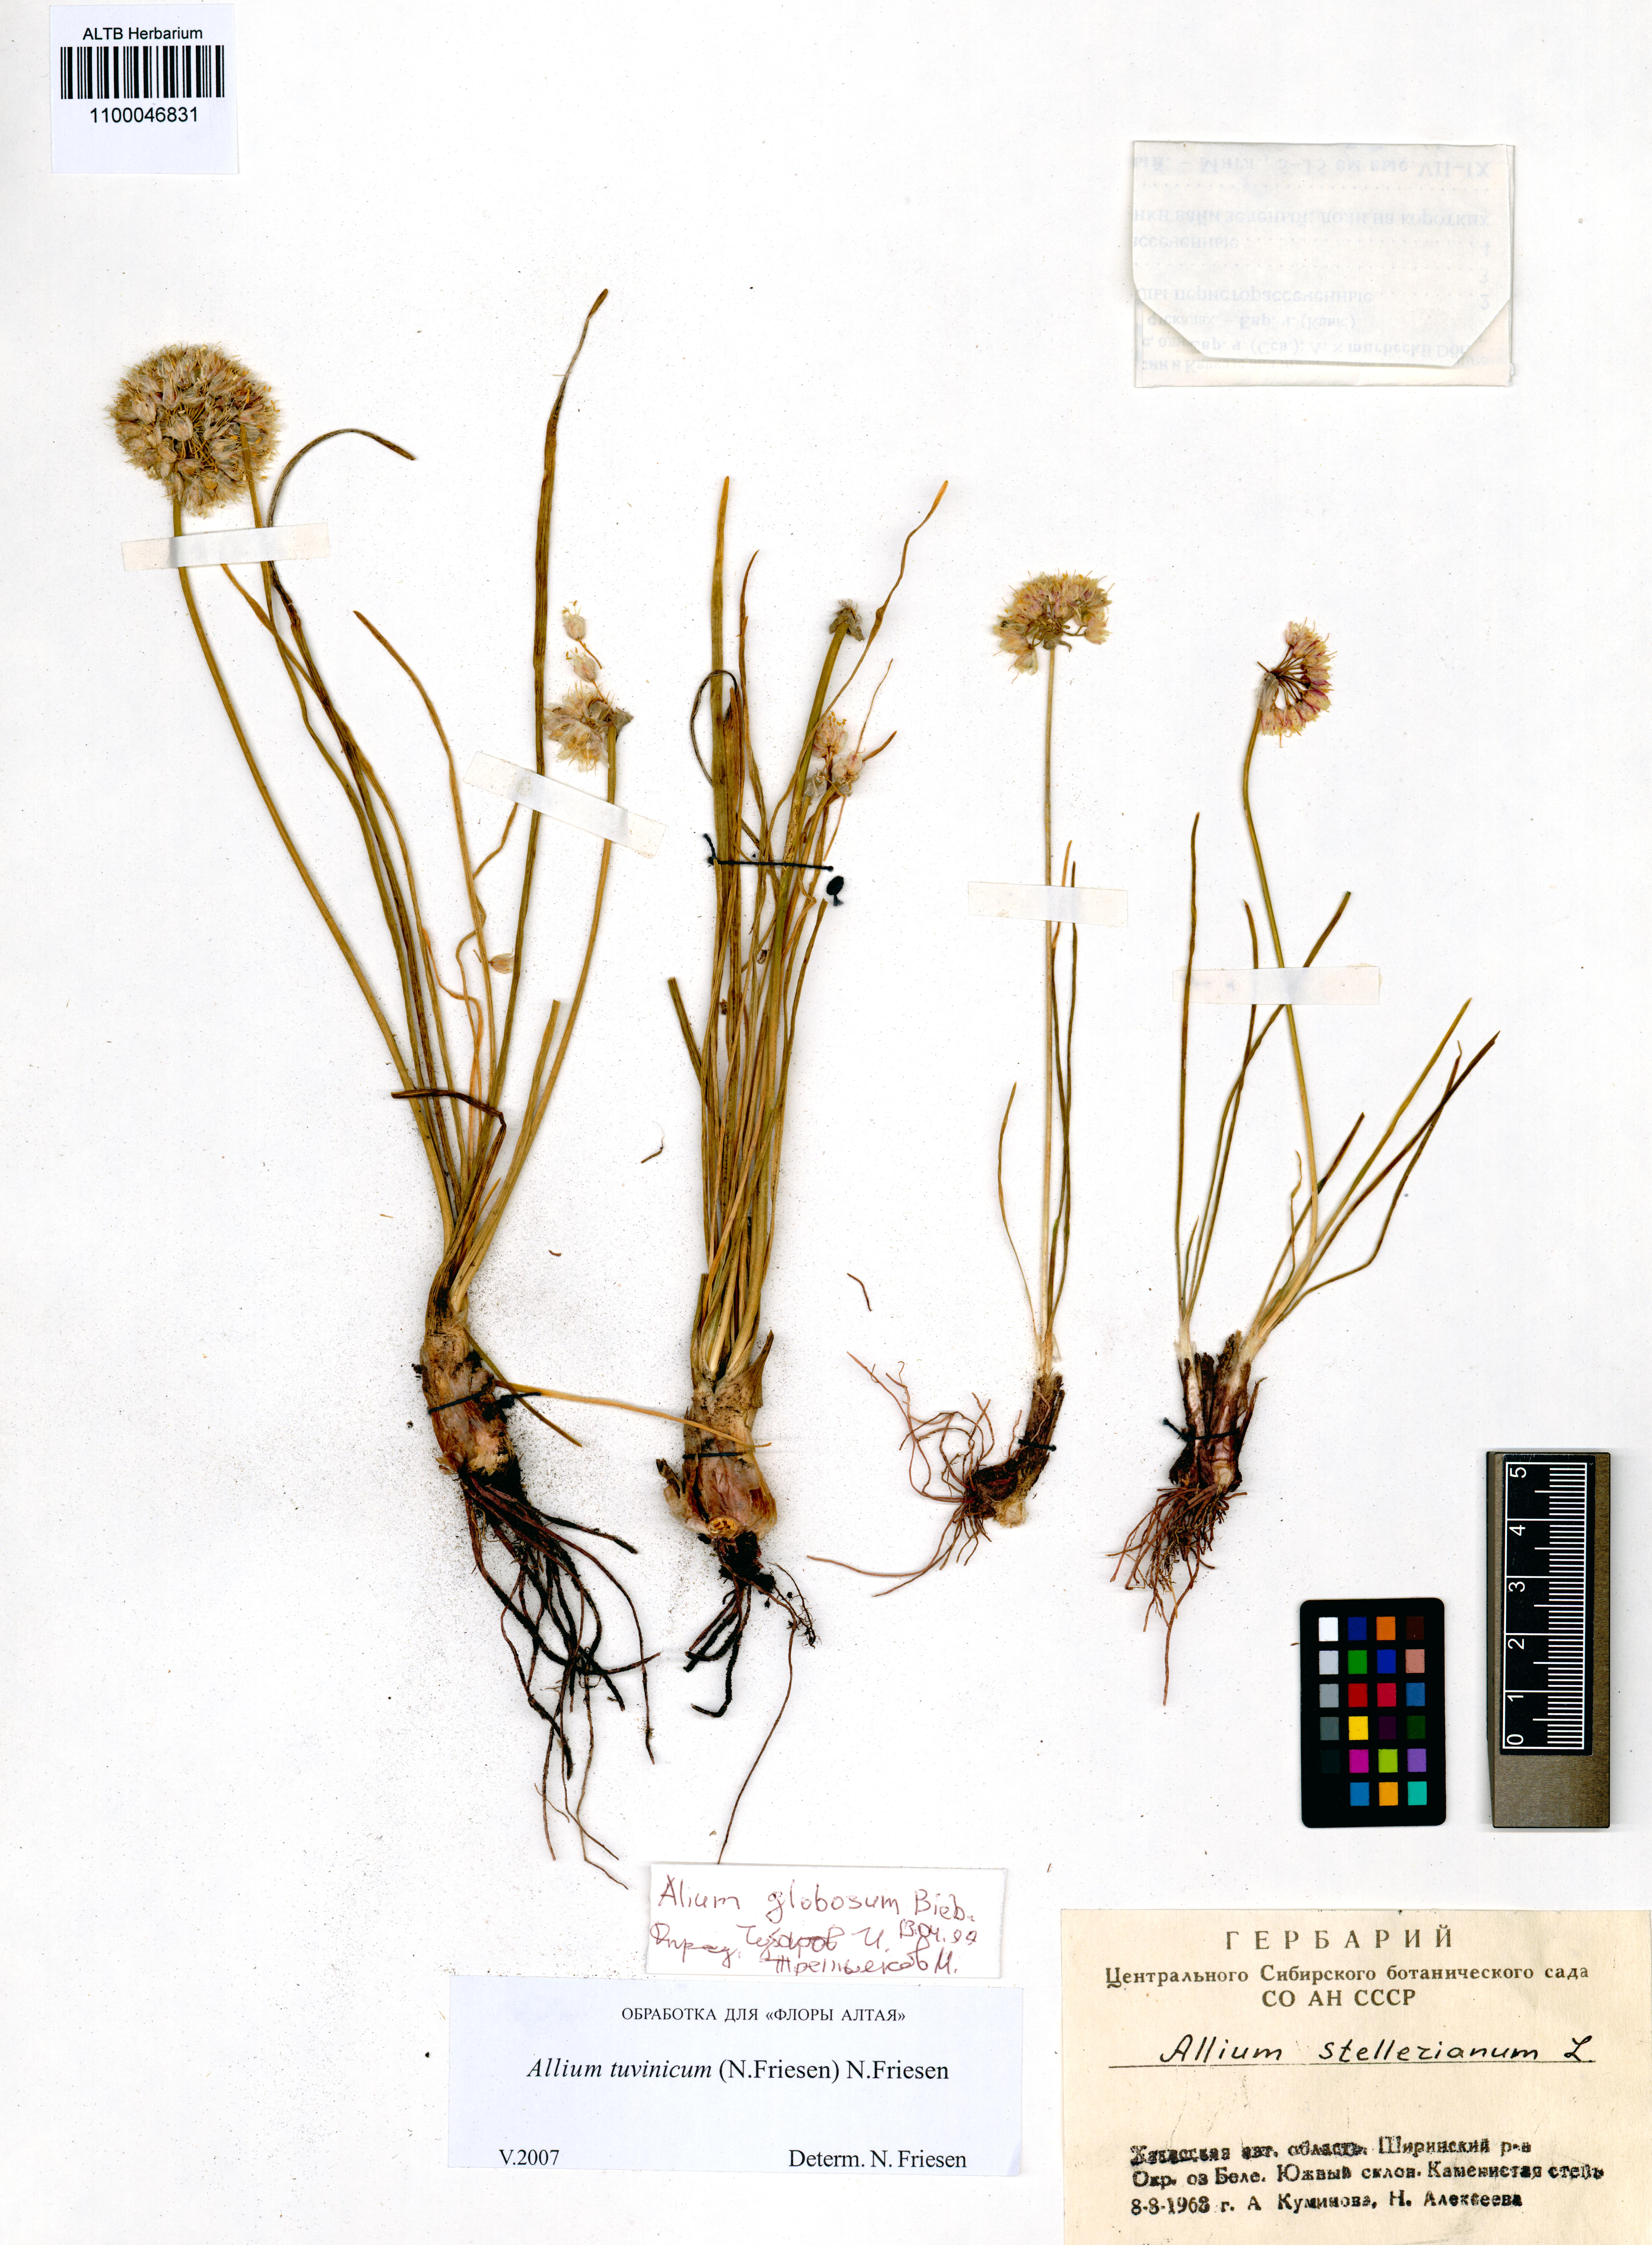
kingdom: Plantae
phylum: Tracheophyta
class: Liliopsida
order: Asparagales
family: Amaryllidaceae
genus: Allium
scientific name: Allium tuvinicum
